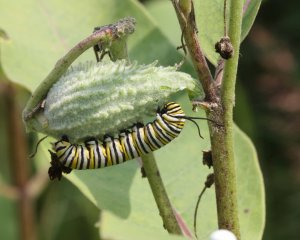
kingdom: Animalia
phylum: Arthropoda
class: Insecta
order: Lepidoptera
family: Nymphalidae
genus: Danaus
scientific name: Danaus plexippus
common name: Monarch
